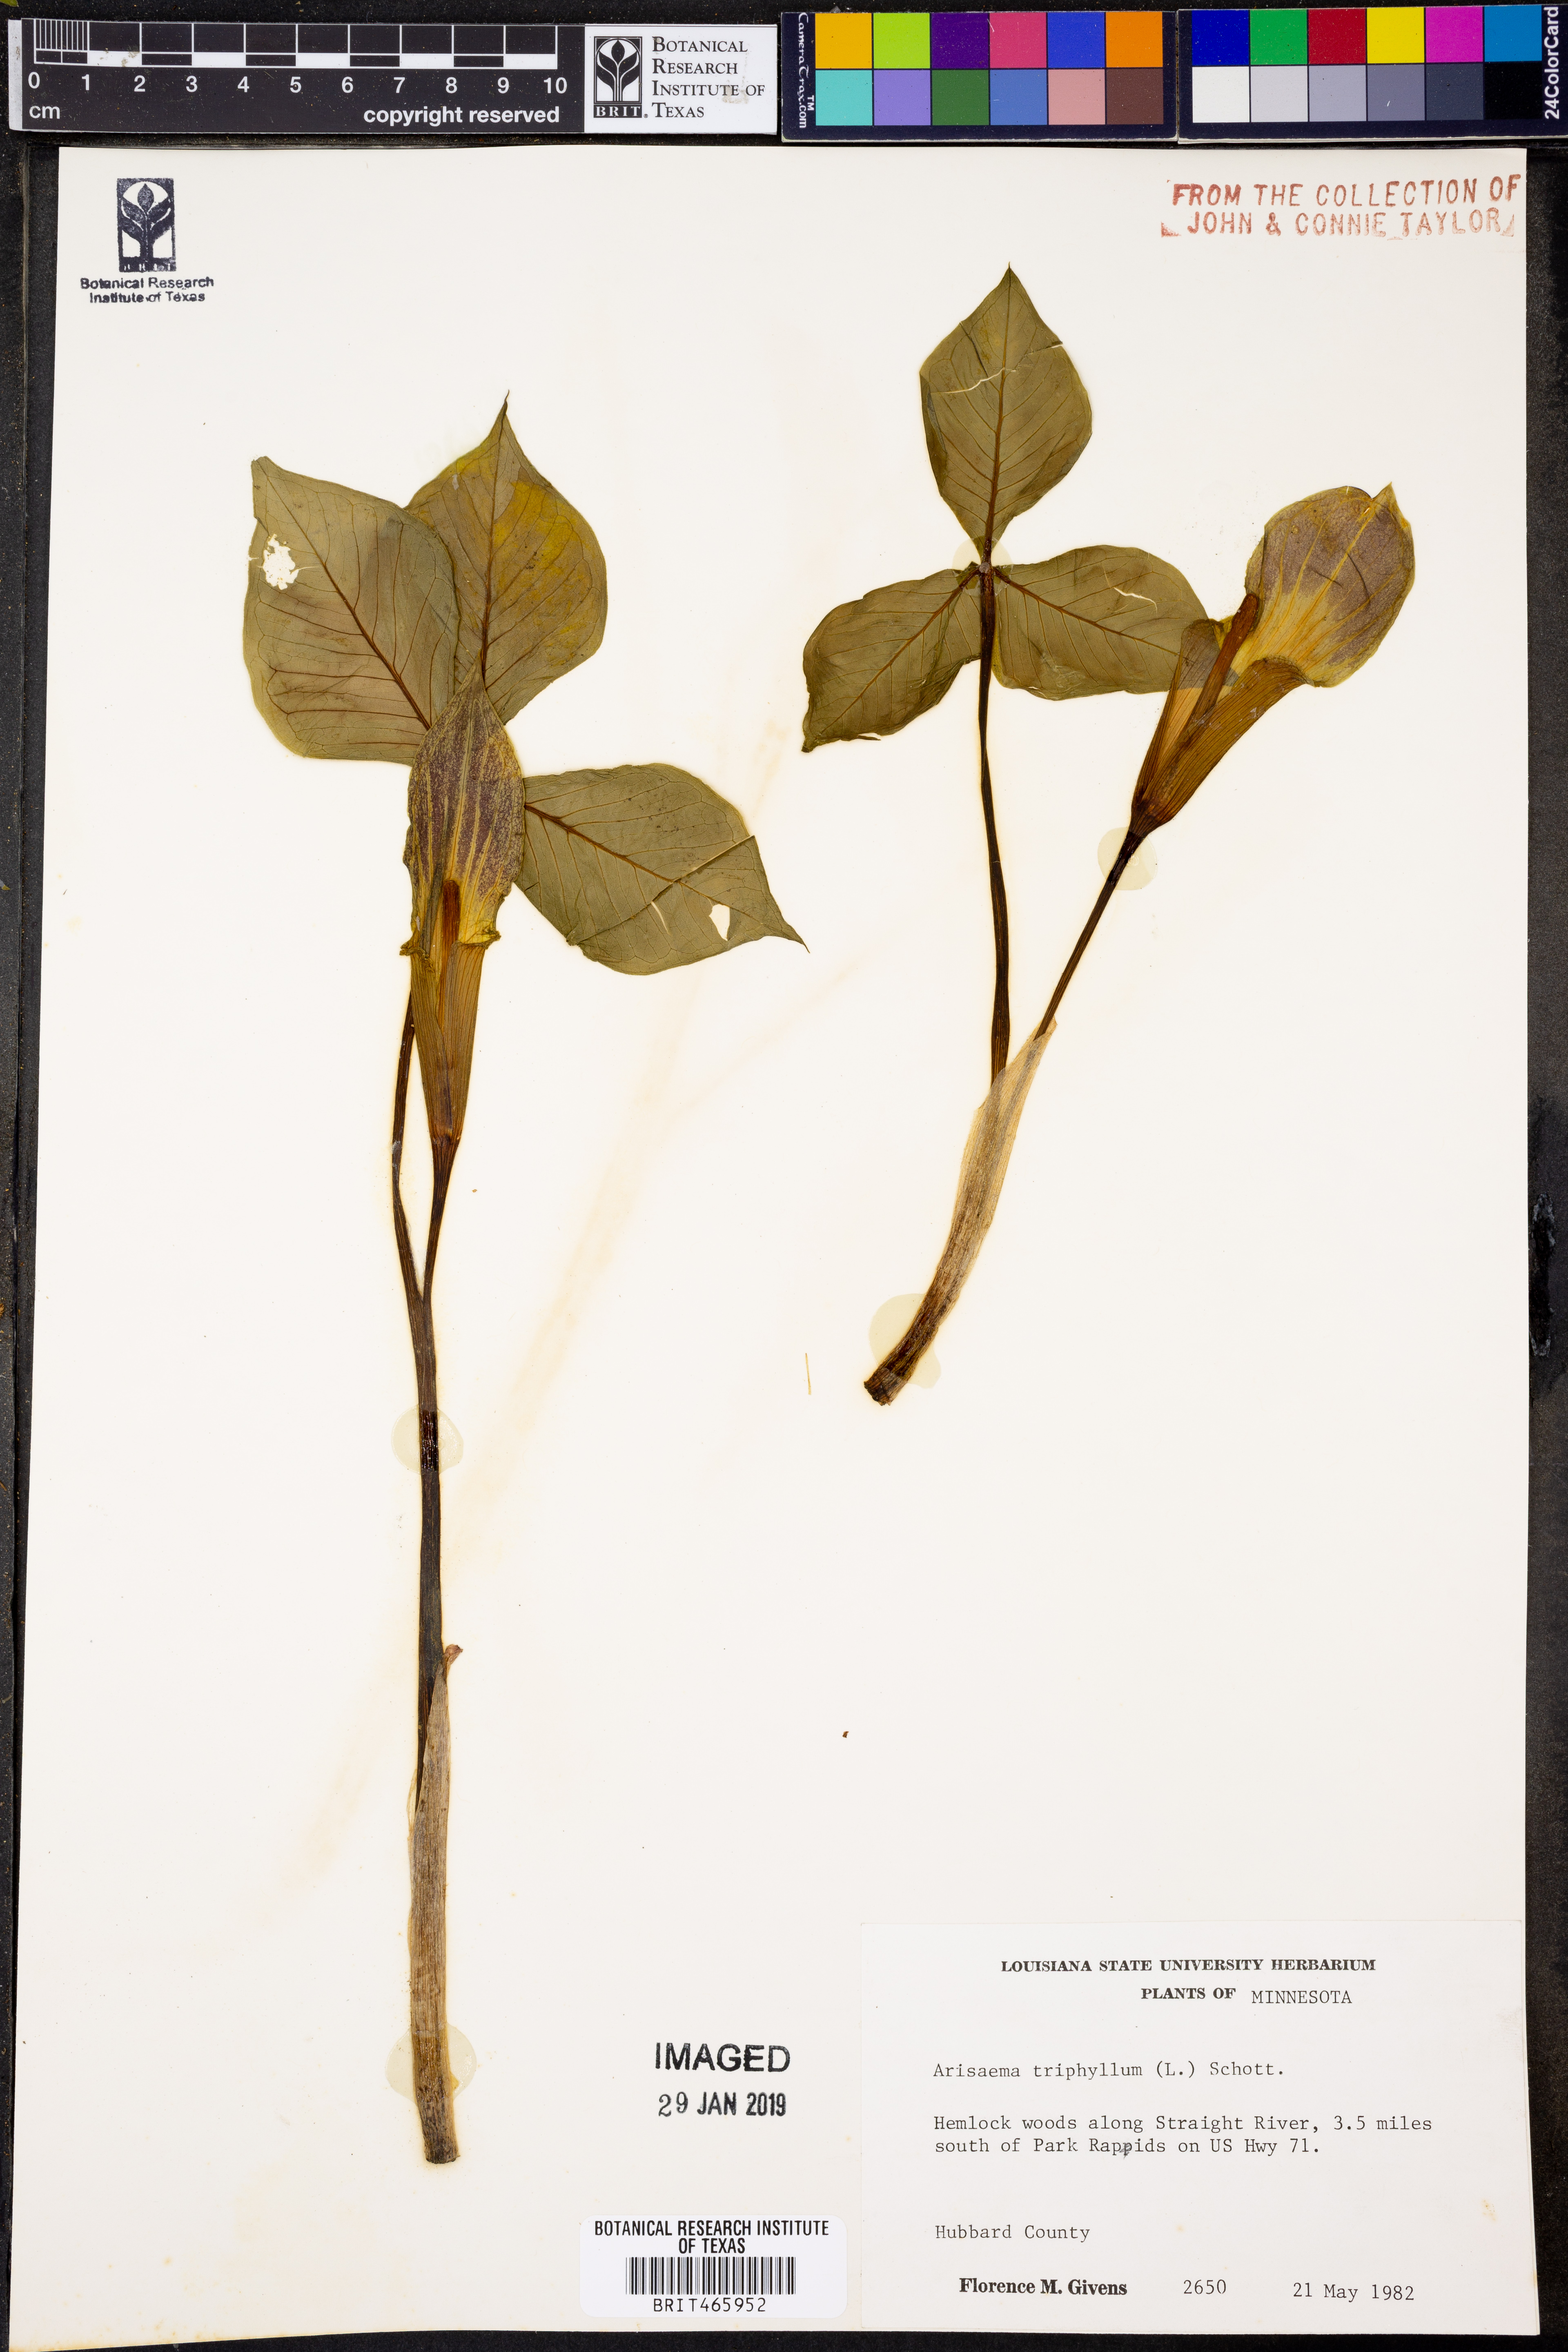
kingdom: Plantae
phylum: Tracheophyta
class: Liliopsida
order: Alismatales
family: Araceae
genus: Arisaema
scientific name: Arisaema triphyllum
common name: Jack-in-the-pulpit
